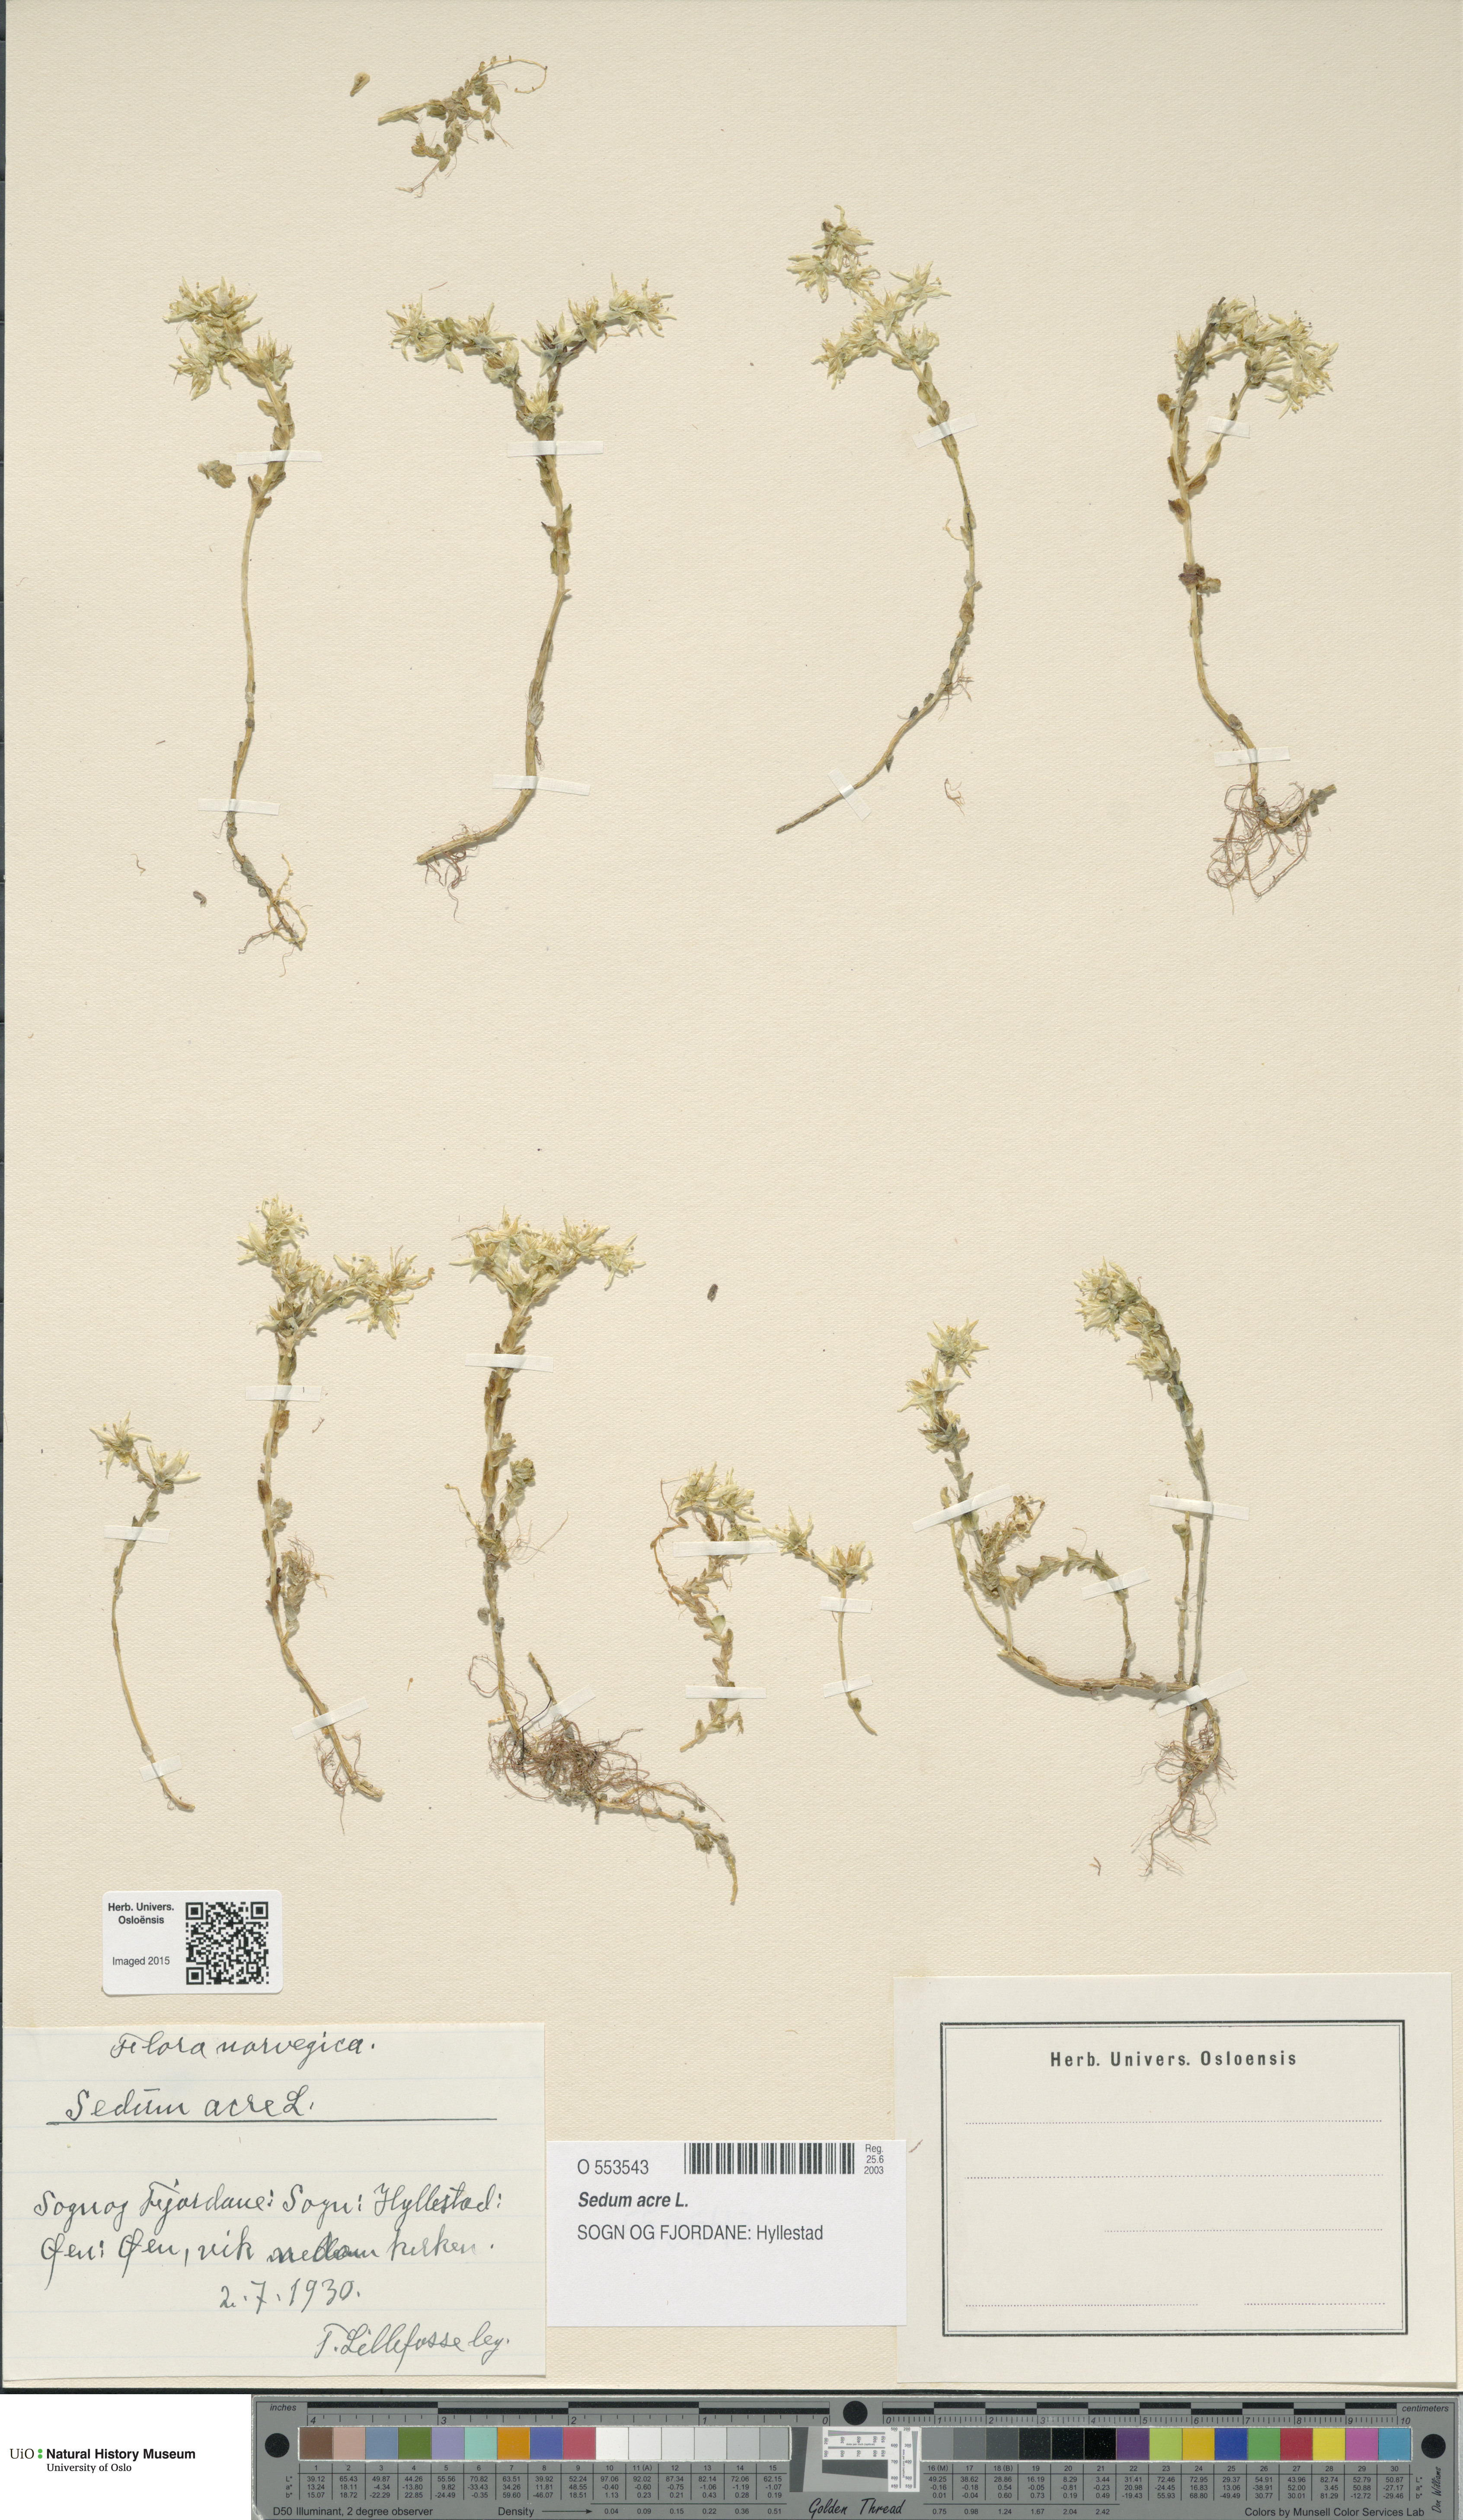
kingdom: Plantae
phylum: Tracheophyta
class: Magnoliopsida
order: Saxifragales
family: Crassulaceae
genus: Sedum
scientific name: Sedum acre
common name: Biting stonecrop
